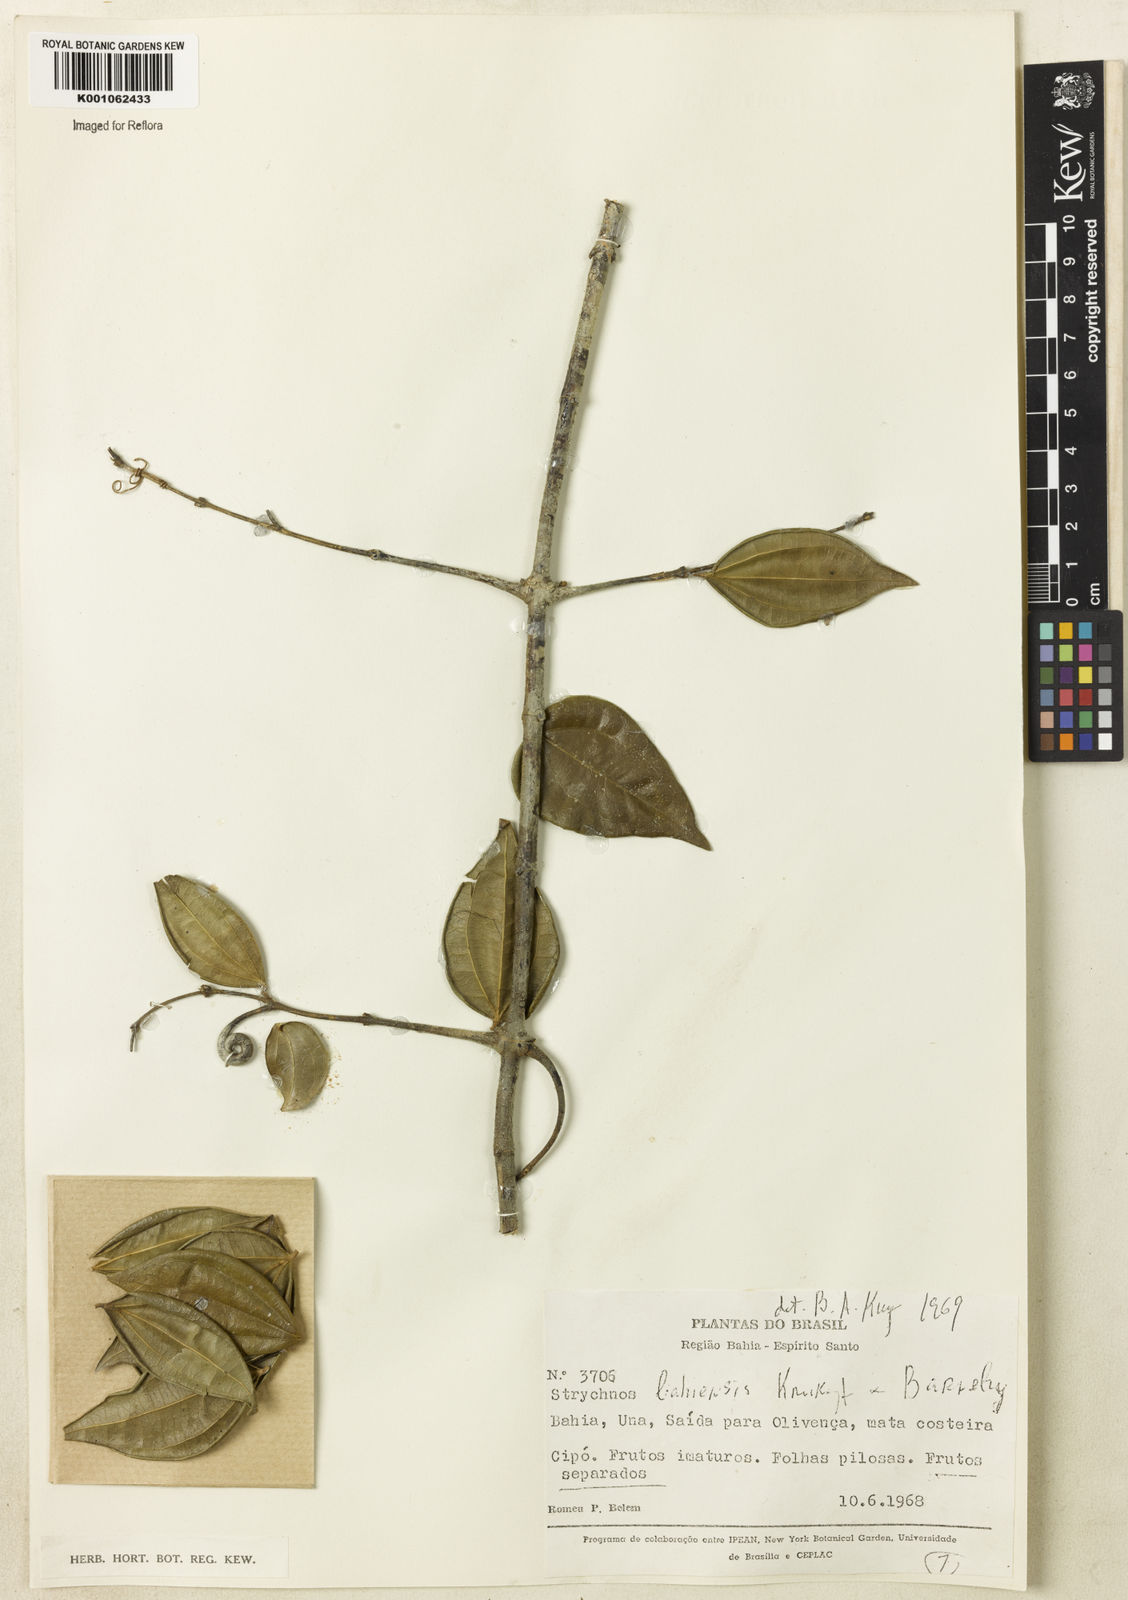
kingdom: Plantae
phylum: Tracheophyta
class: Magnoliopsida
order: Gentianales
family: Loganiaceae
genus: Strychnos
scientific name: Strychnos
